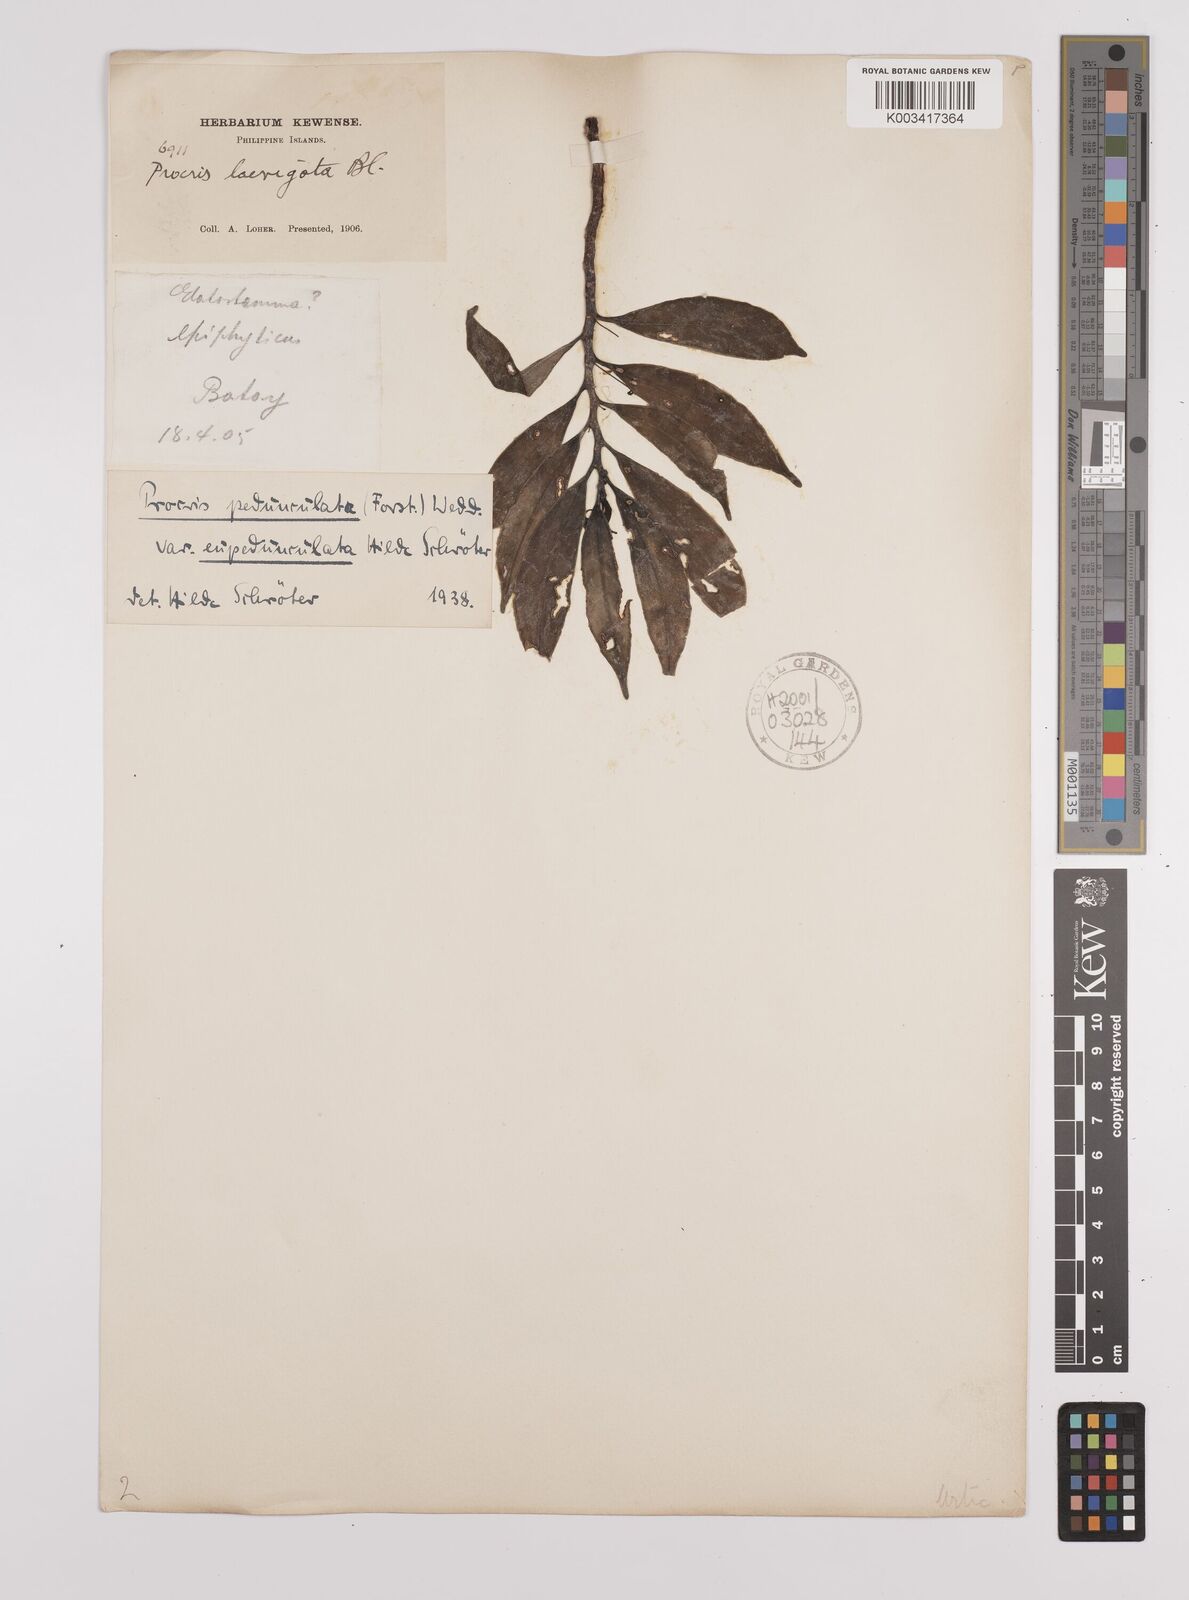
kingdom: Plantae
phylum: Tracheophyta
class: Magnoliopsida
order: Rosales
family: Urticaceae
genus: Procris
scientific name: Procris pedunculata
